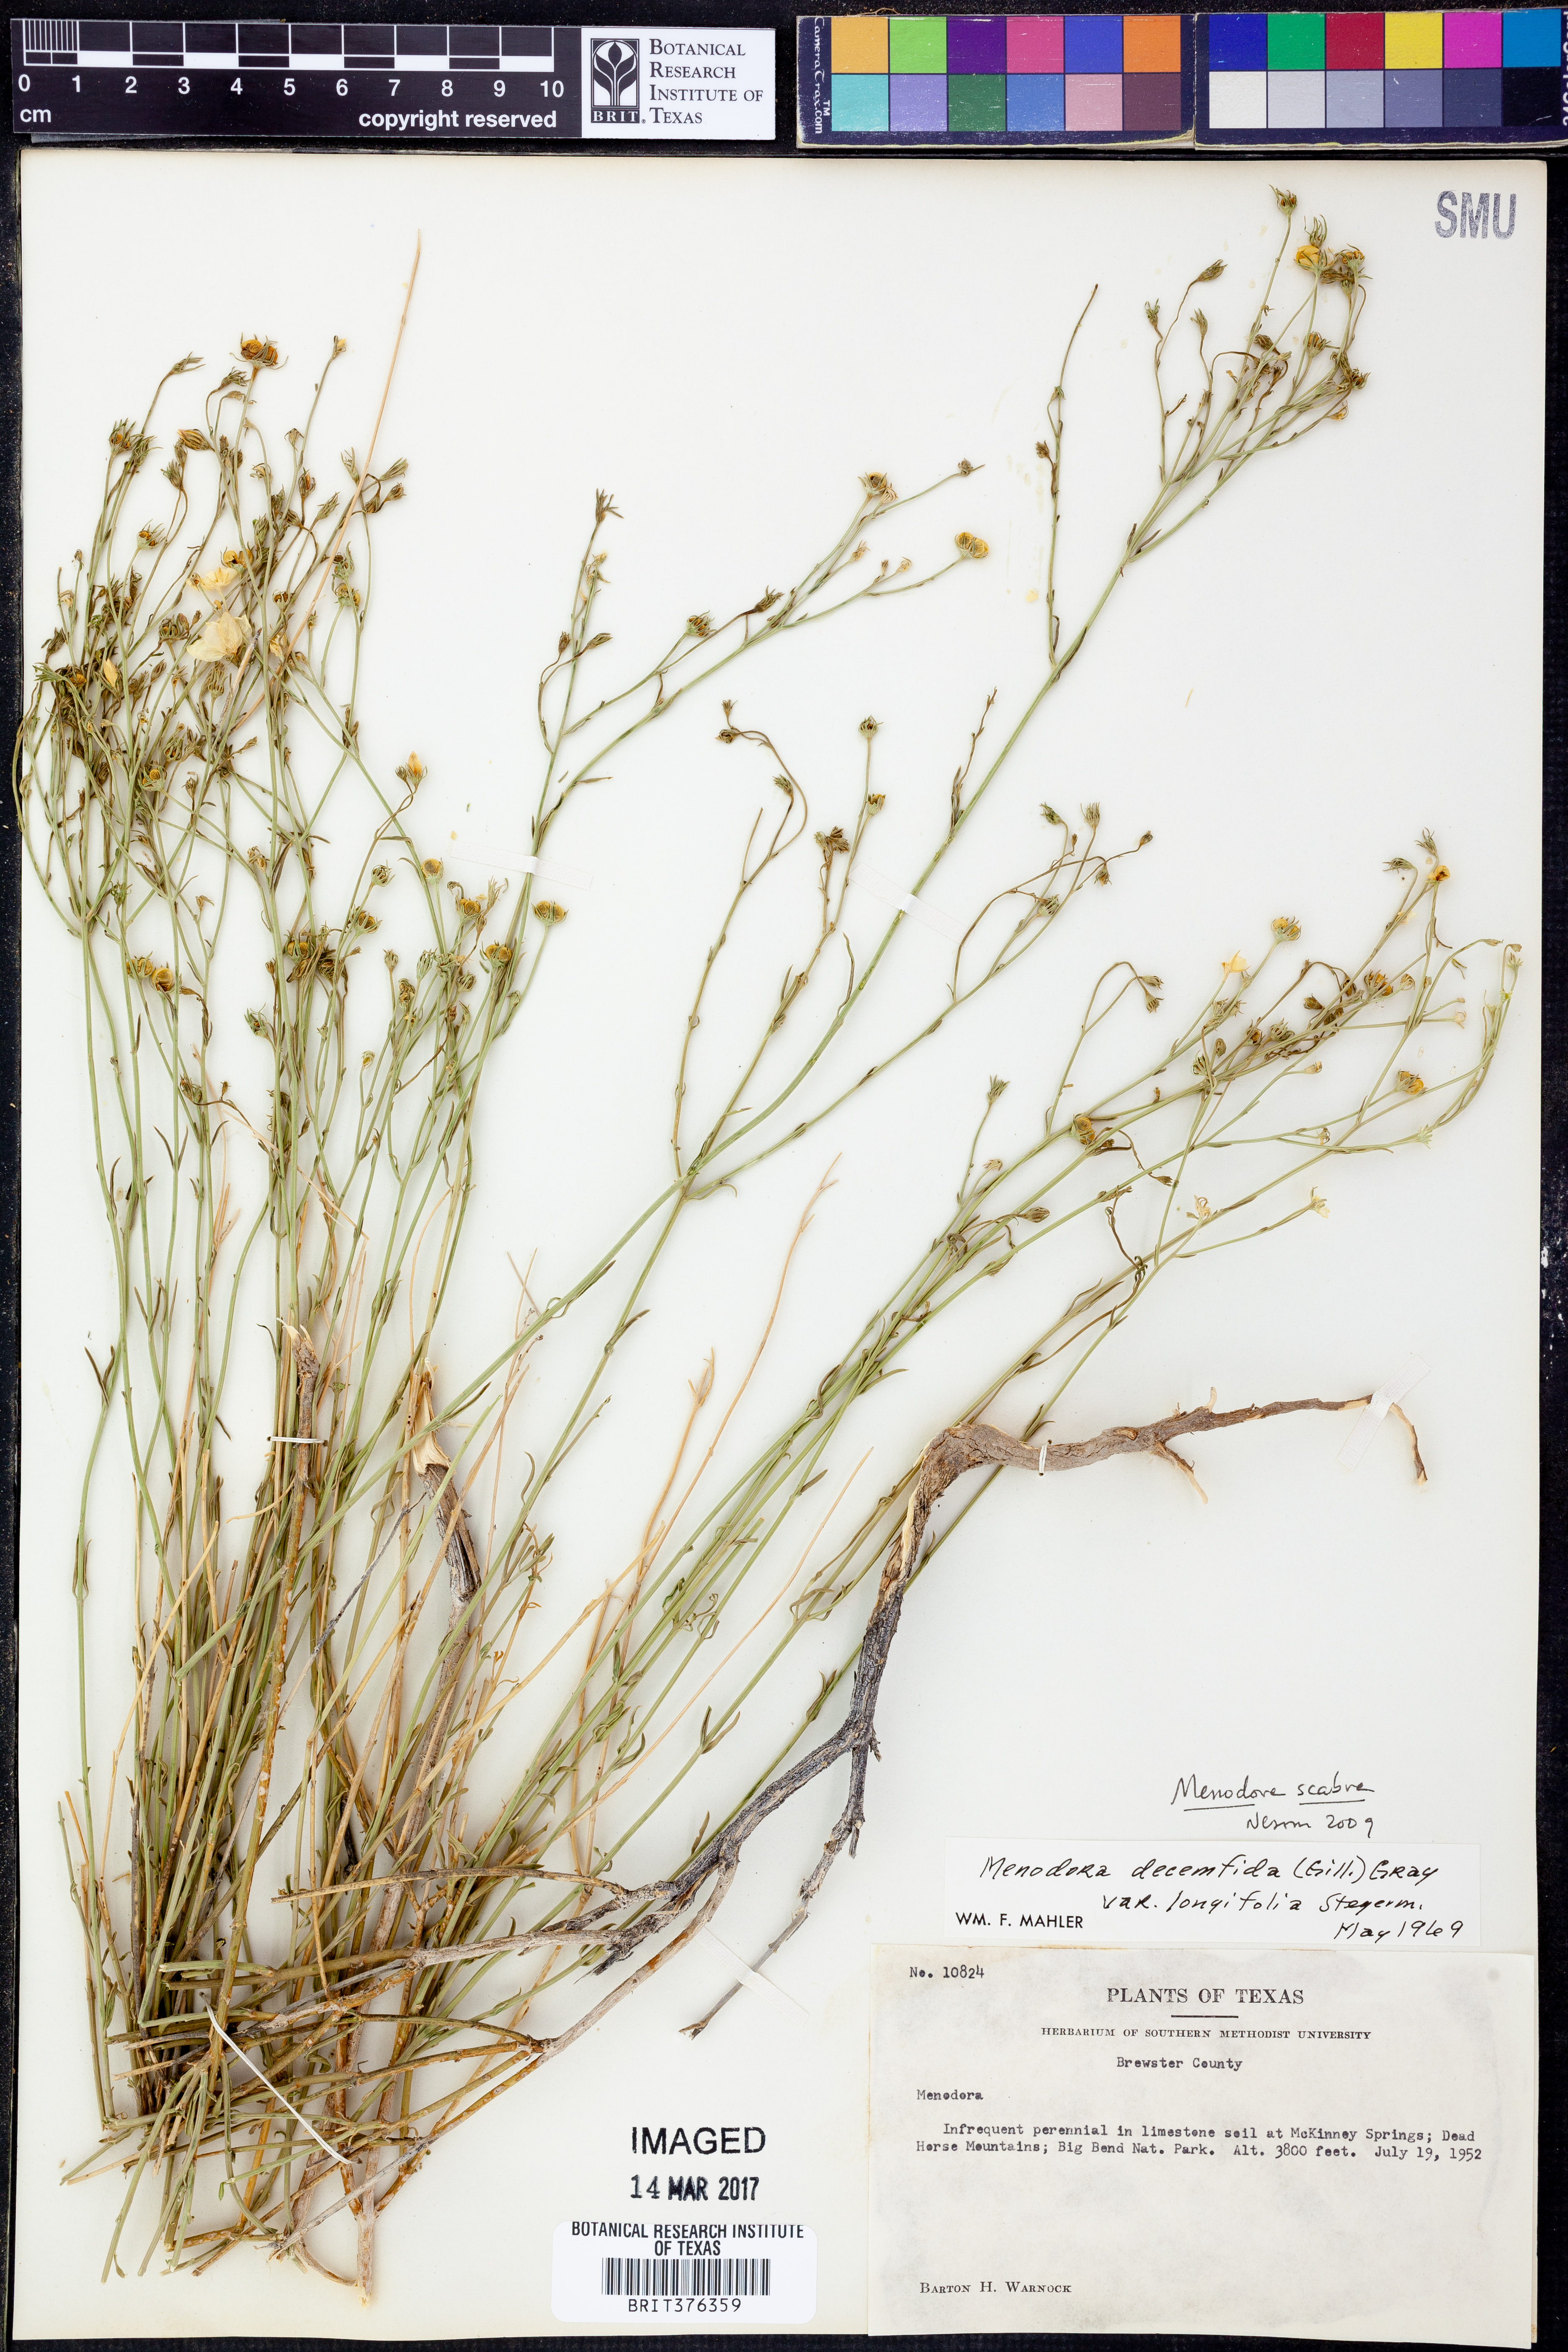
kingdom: Plantae
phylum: Tracheophyta
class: Magnoliopsida
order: Lamiales
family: Oleaceae
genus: Menodora
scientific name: Menodora scabra
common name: Rough menodora
